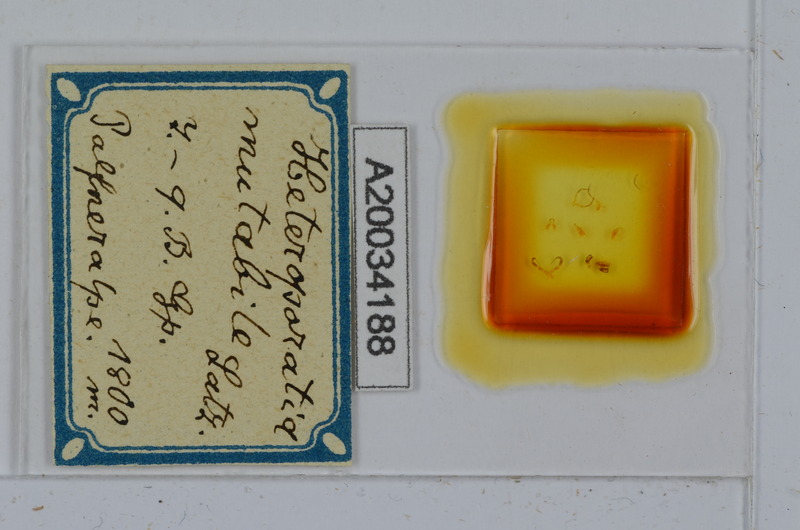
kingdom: Animalia
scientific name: Animalia
